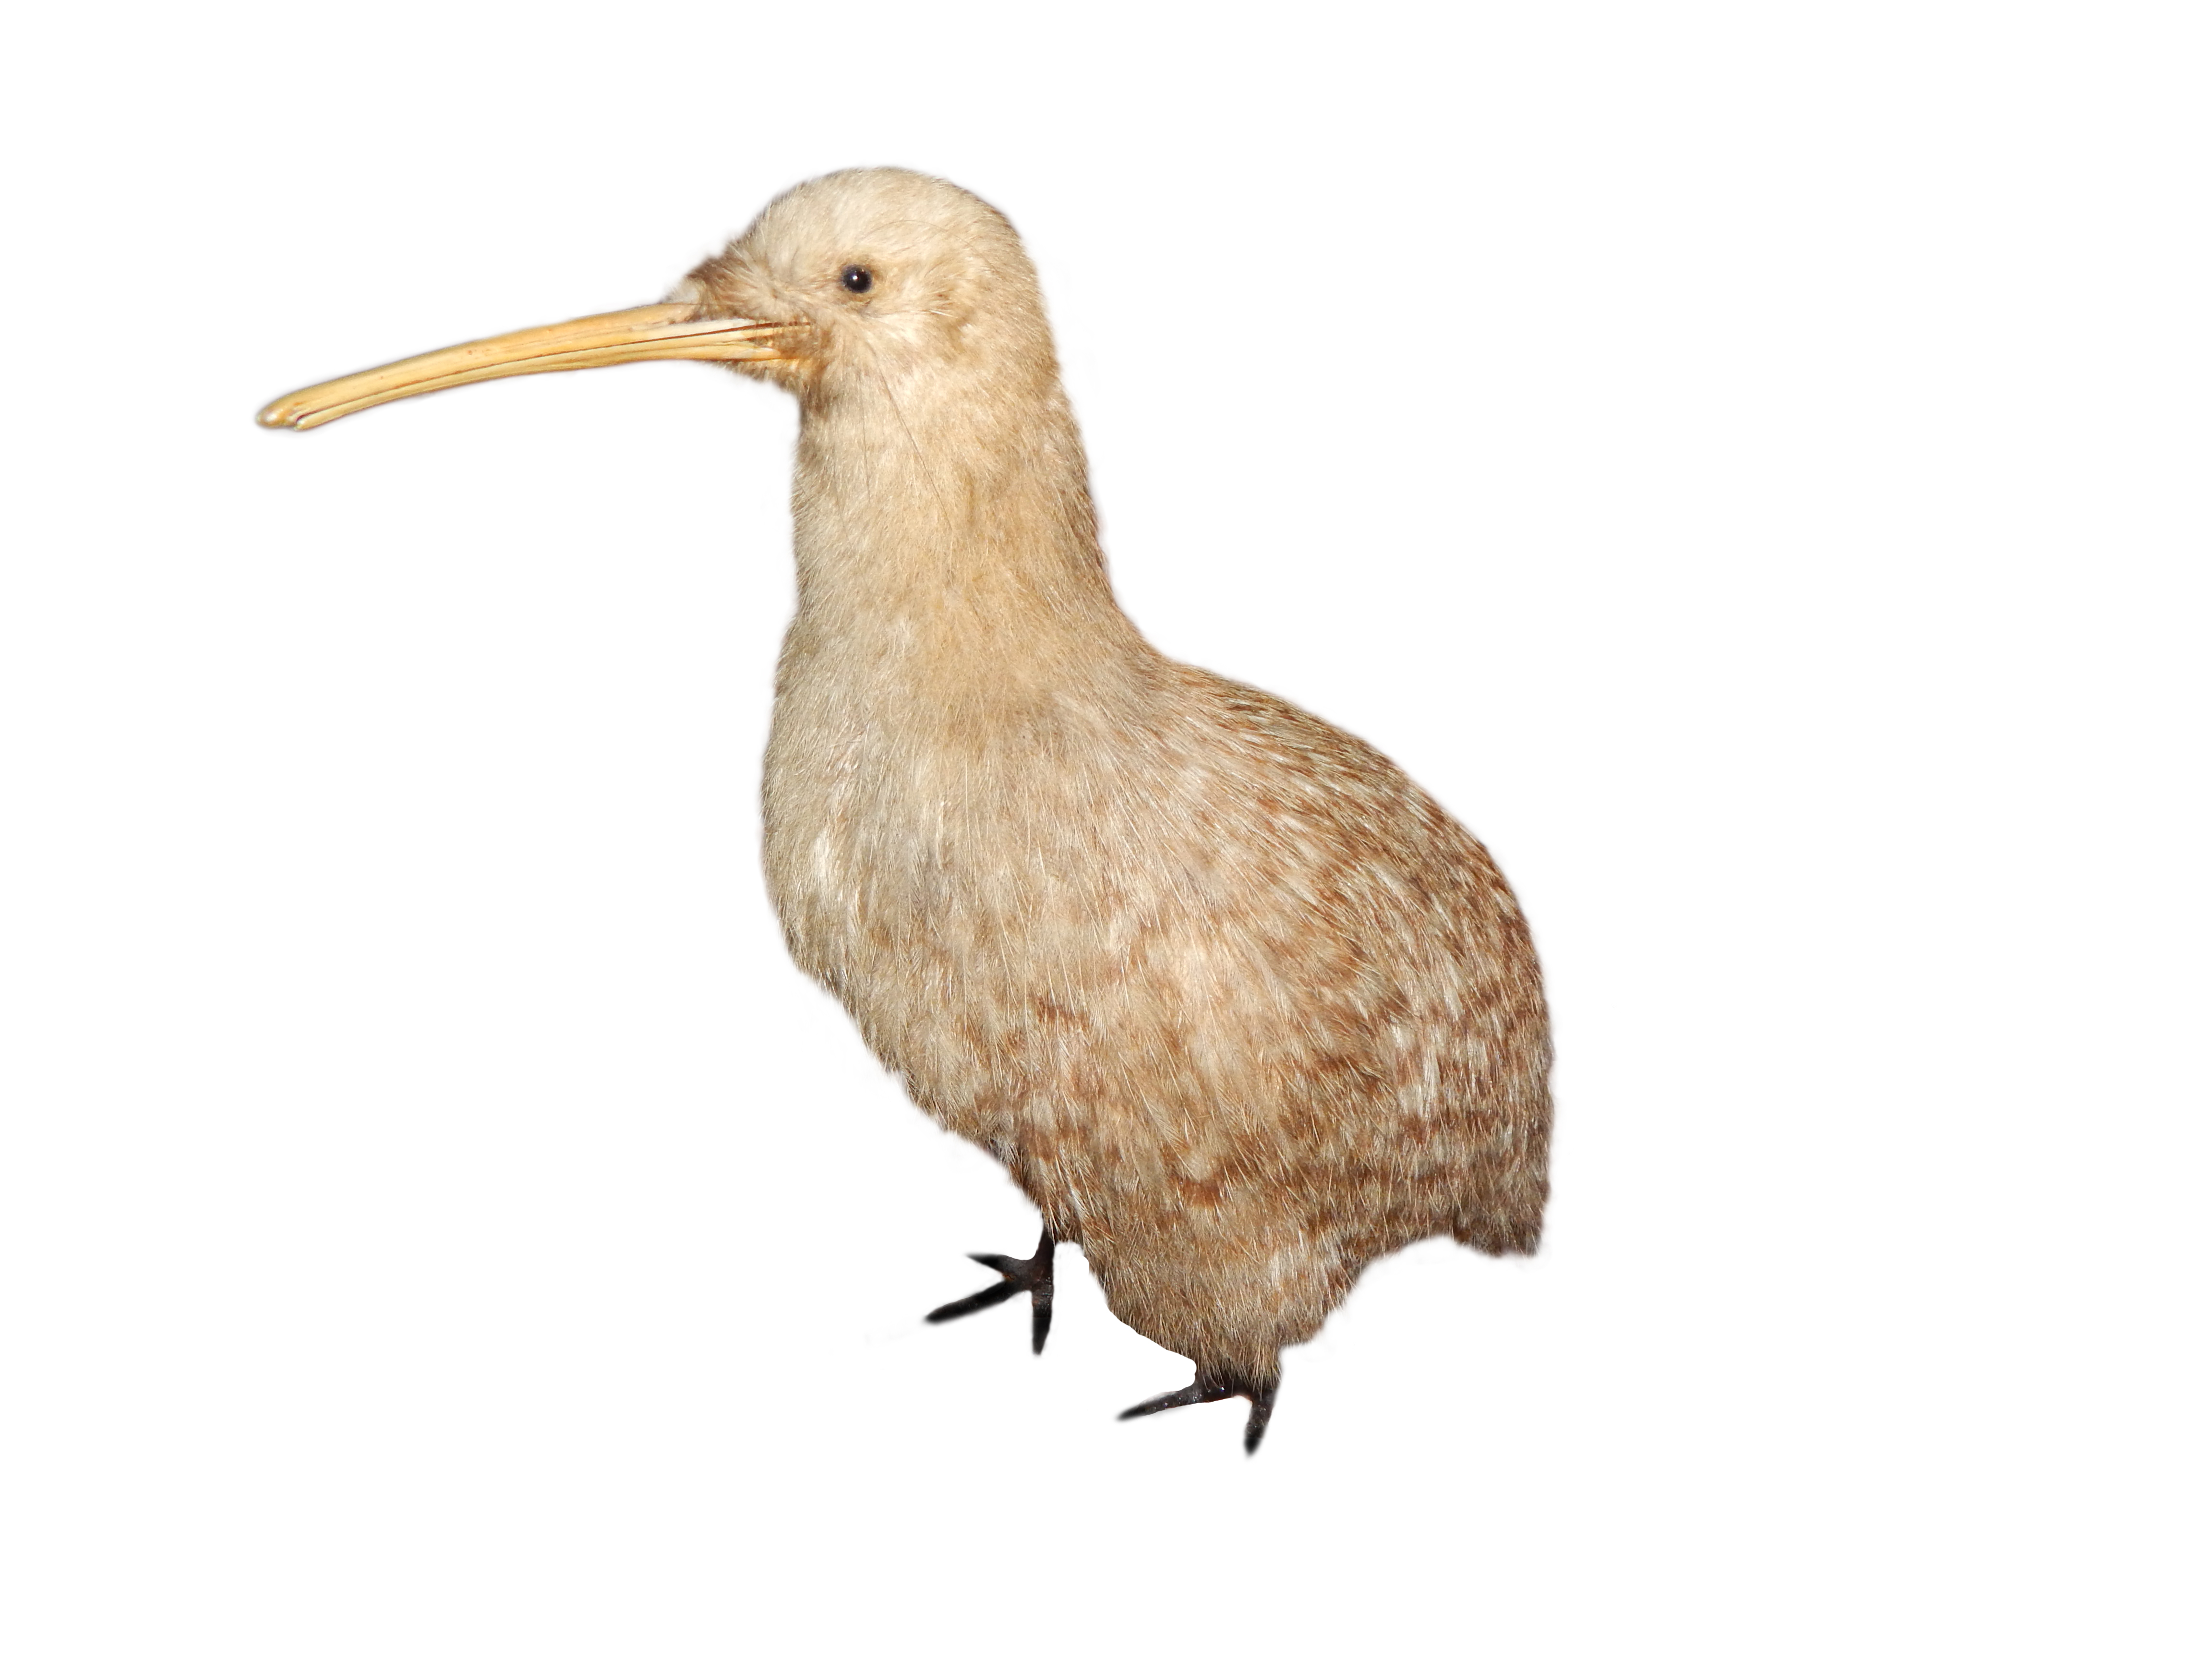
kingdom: Animalia
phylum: Chordata
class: Aves
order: Apterygiformes
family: Apterygidae
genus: Apteryx
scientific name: Apteryx owenii
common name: Little spotted kiwi
